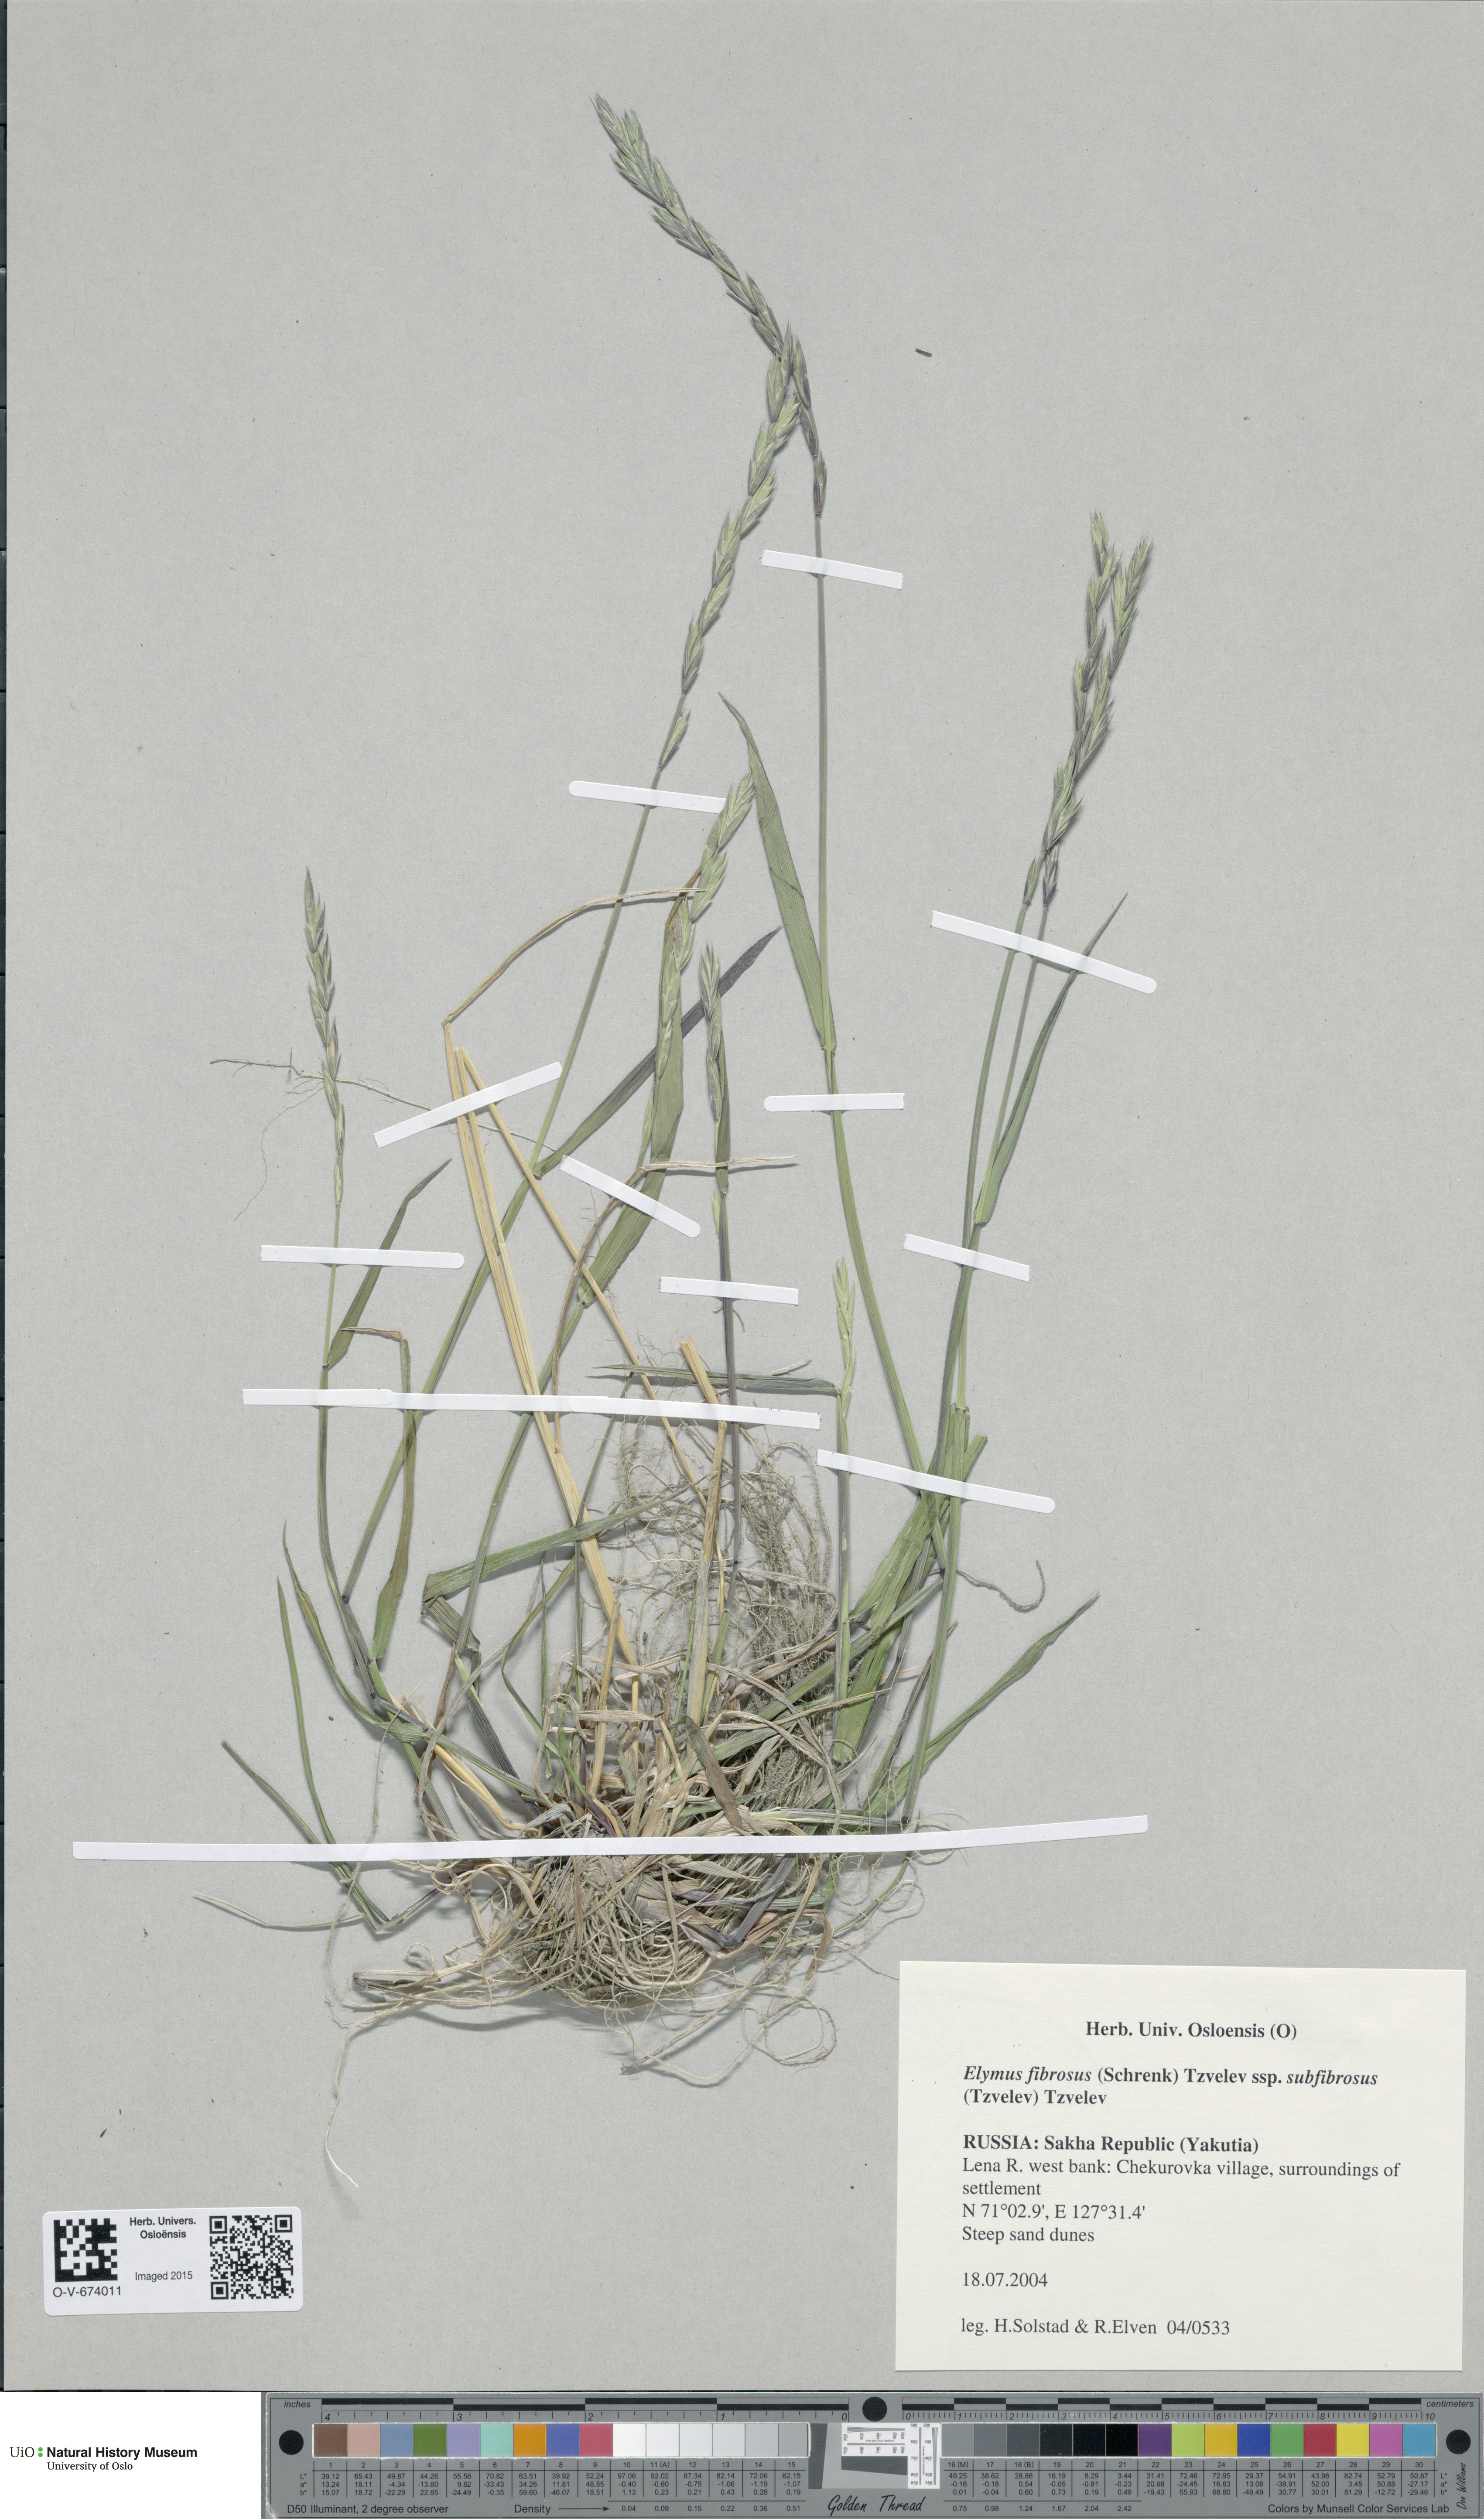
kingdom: Plantae
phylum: Tracheophyta
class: Liliopsida
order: Poales
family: Poaceae
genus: Elymus
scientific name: Elymus fibrosus
